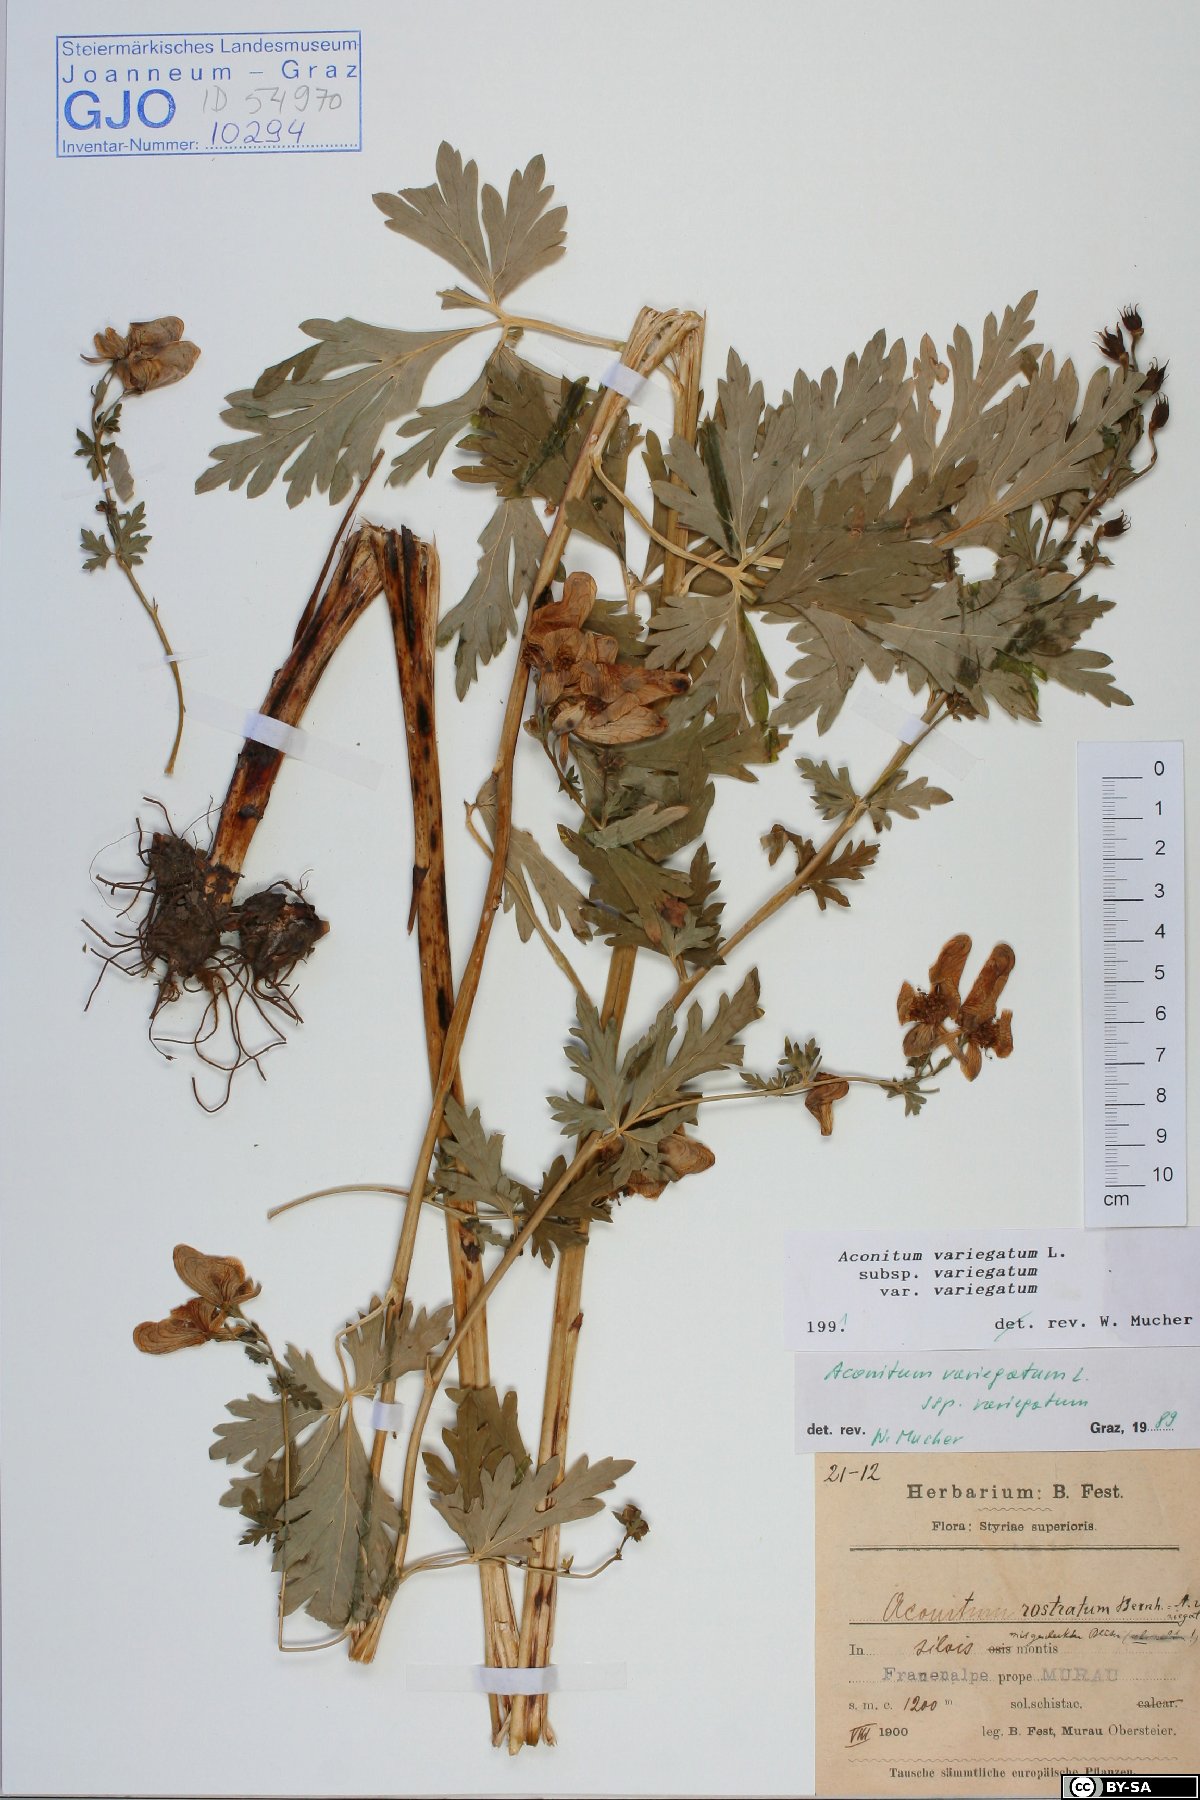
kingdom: Plantae
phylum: Tracheophyta
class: Magnoliopsida
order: Ranunculales
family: Ranunculaceae
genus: Aconitum
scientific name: Aconitum variegatum
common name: Manchurian monkshood
